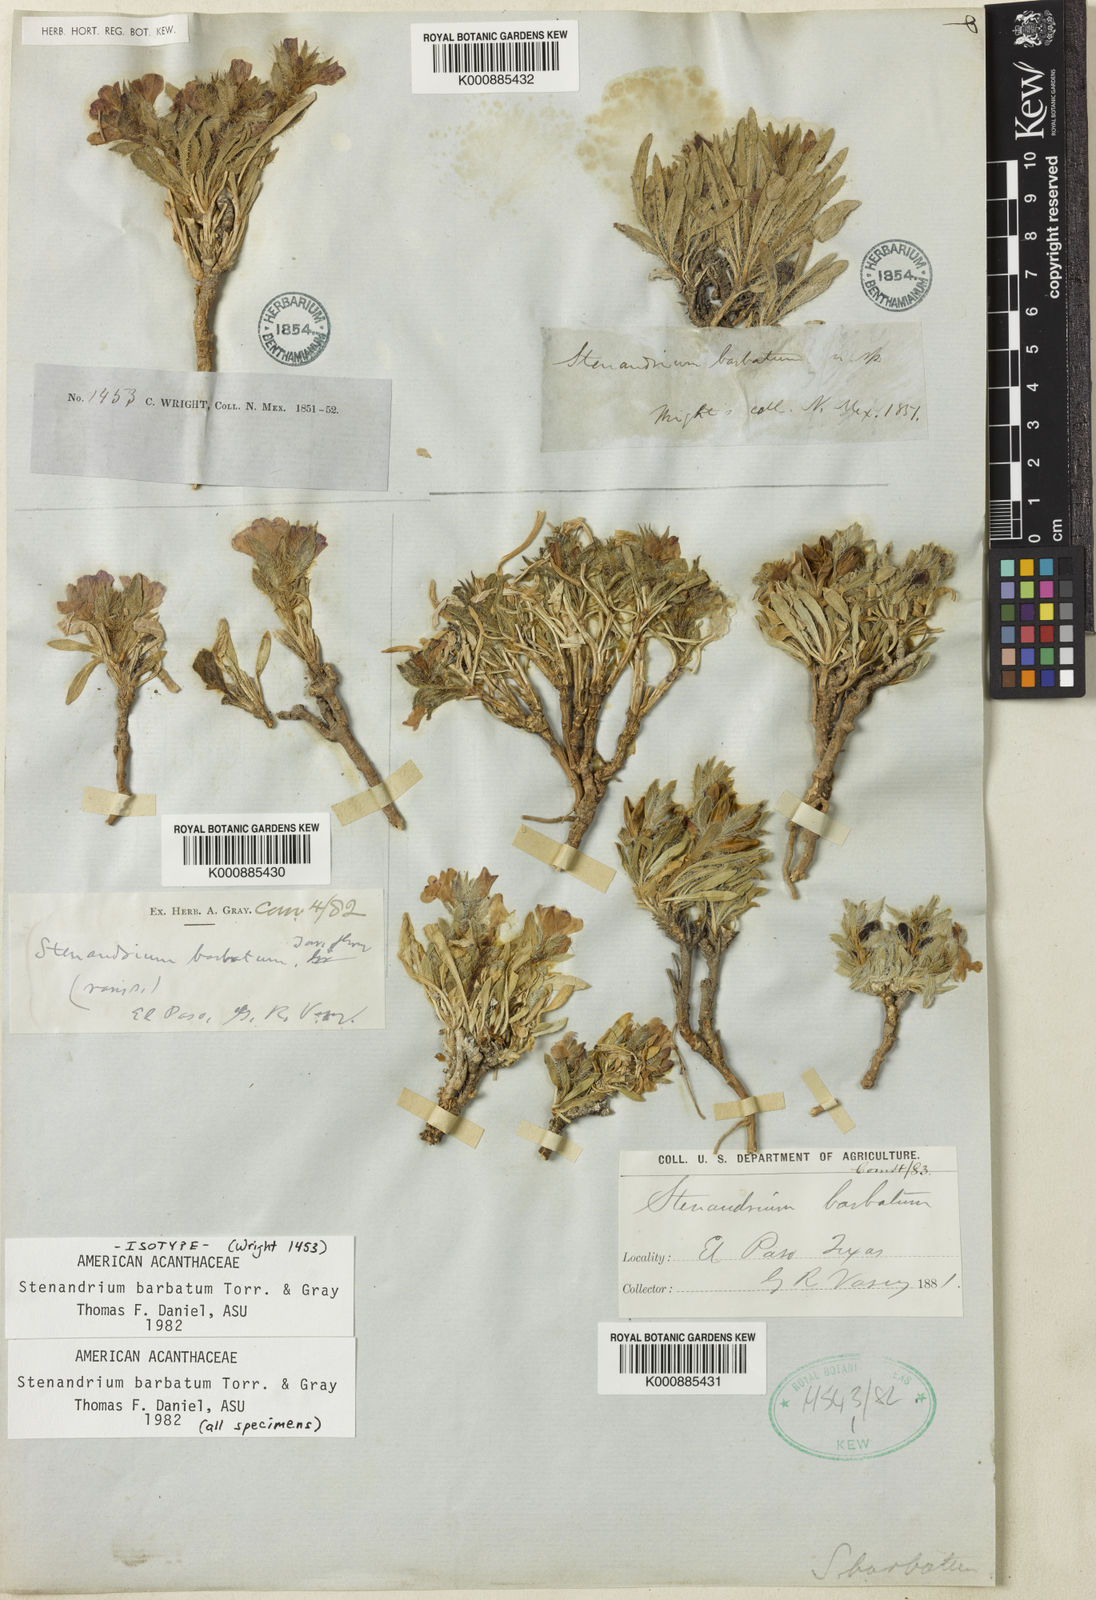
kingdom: Plantae
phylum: Tracheophyta
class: Magnoliopsida
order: Lamiales
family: Acanthaceae
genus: Stenandrium
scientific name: Stenandrium barbatum
